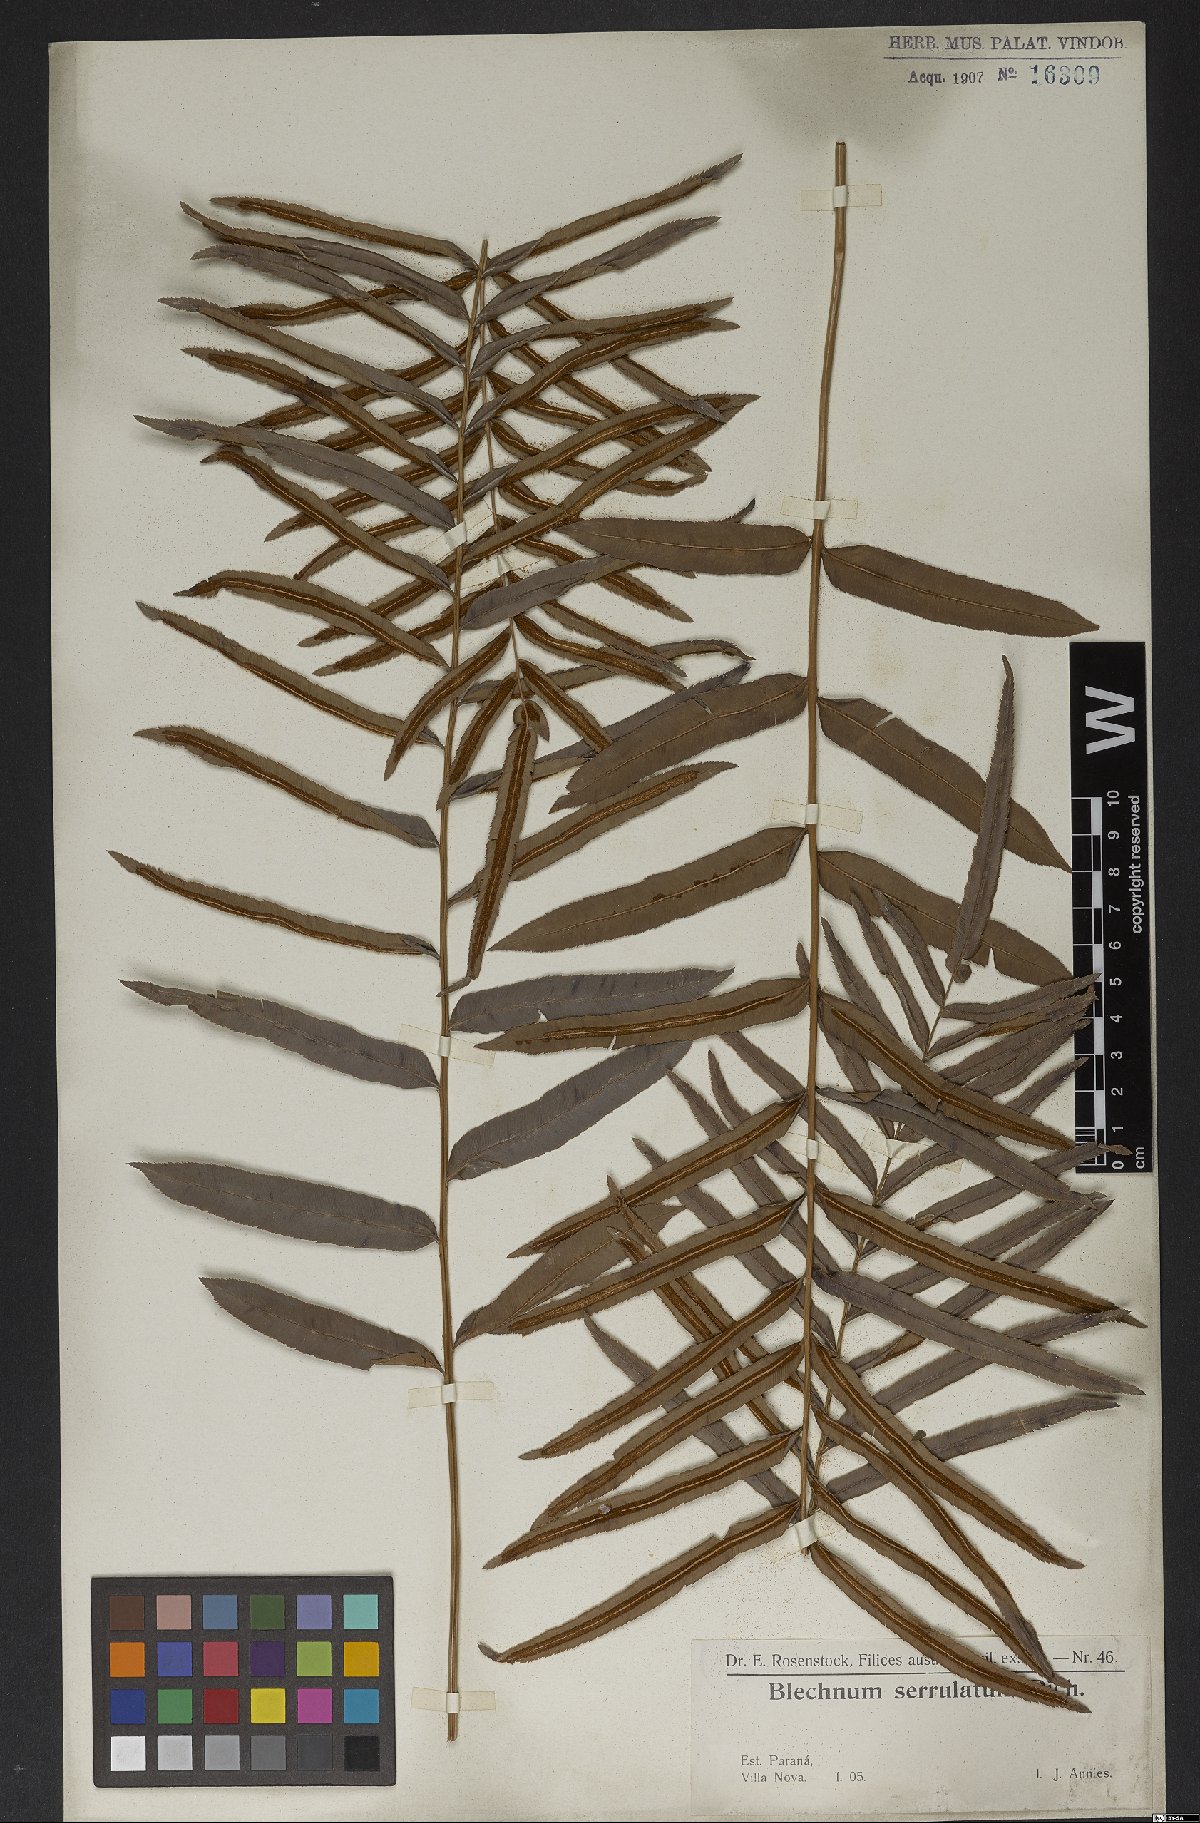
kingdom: Plantae
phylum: Tracheophyta
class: Polypodiopsida
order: Polypodiales
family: Blechnaceae
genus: Telmatoblechnum
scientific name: Telmatoblechnum serrulatum
